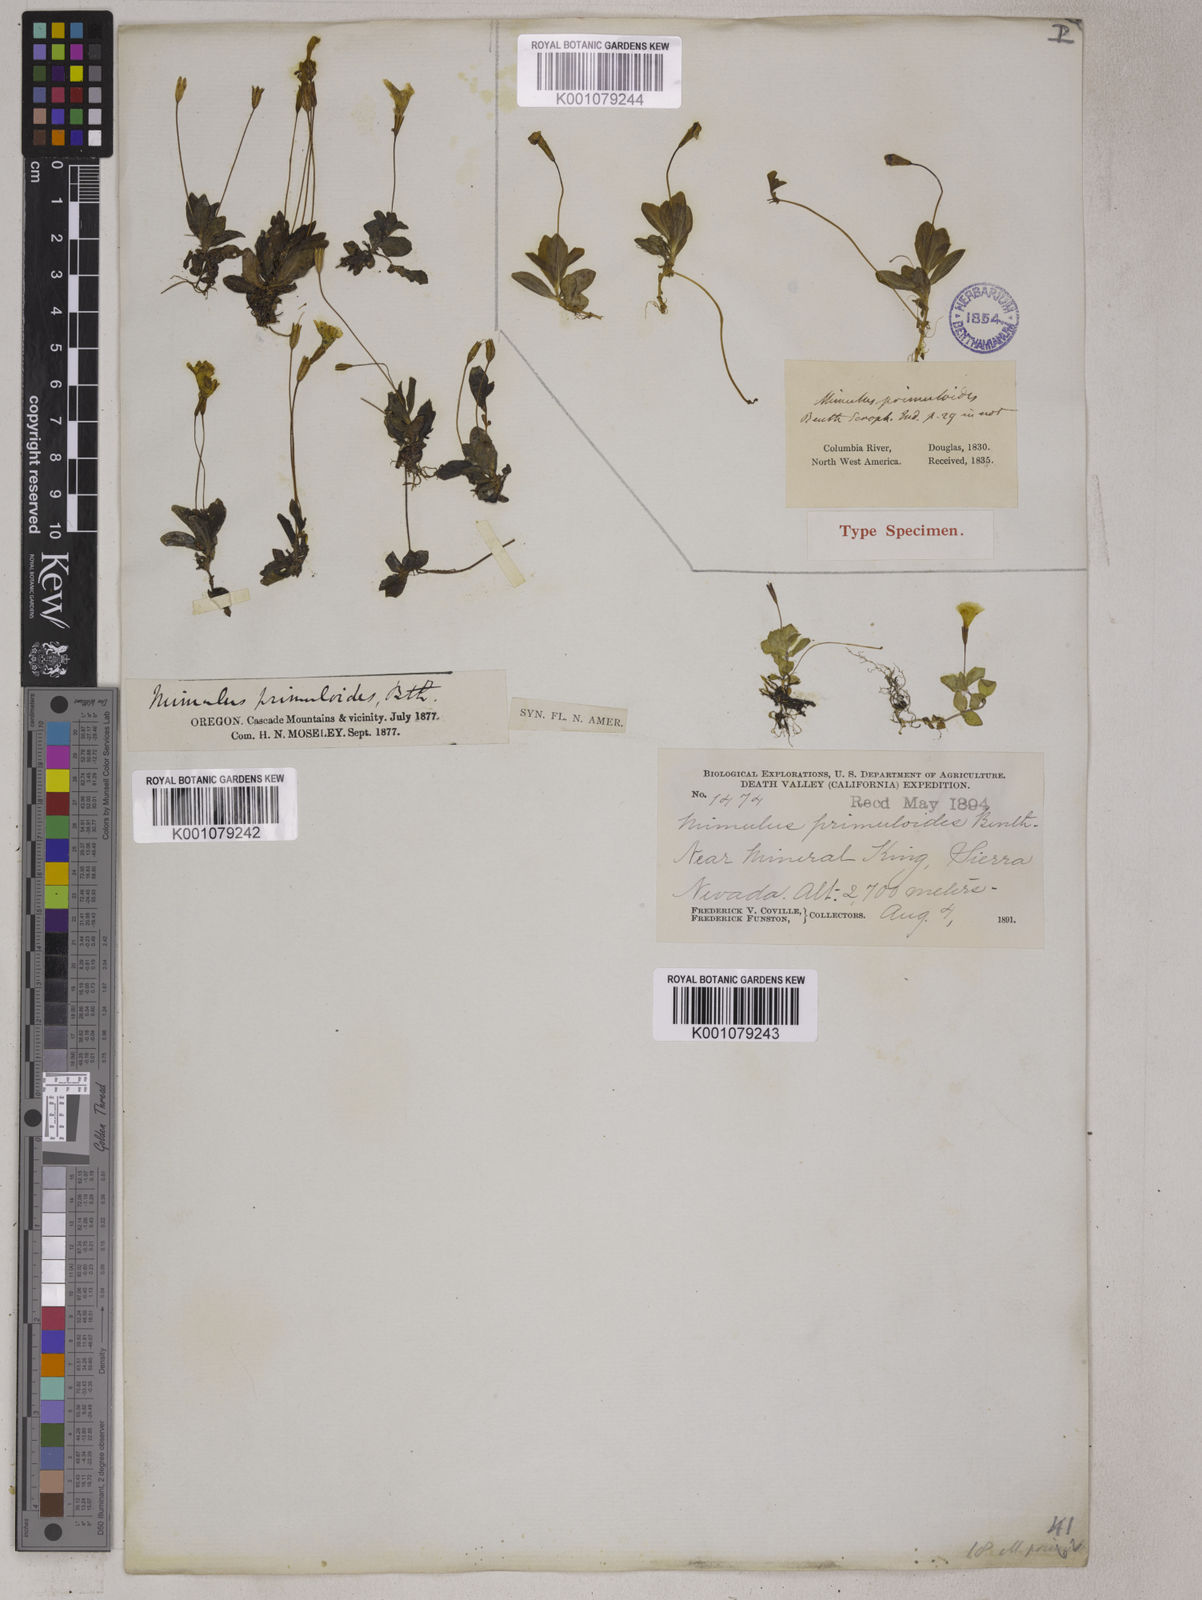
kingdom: Plantae
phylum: Tracheophyta
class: Magnoliopsida
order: Lamiales
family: Phrymaceae
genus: Erythranthe
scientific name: Erythranthe primuloides
